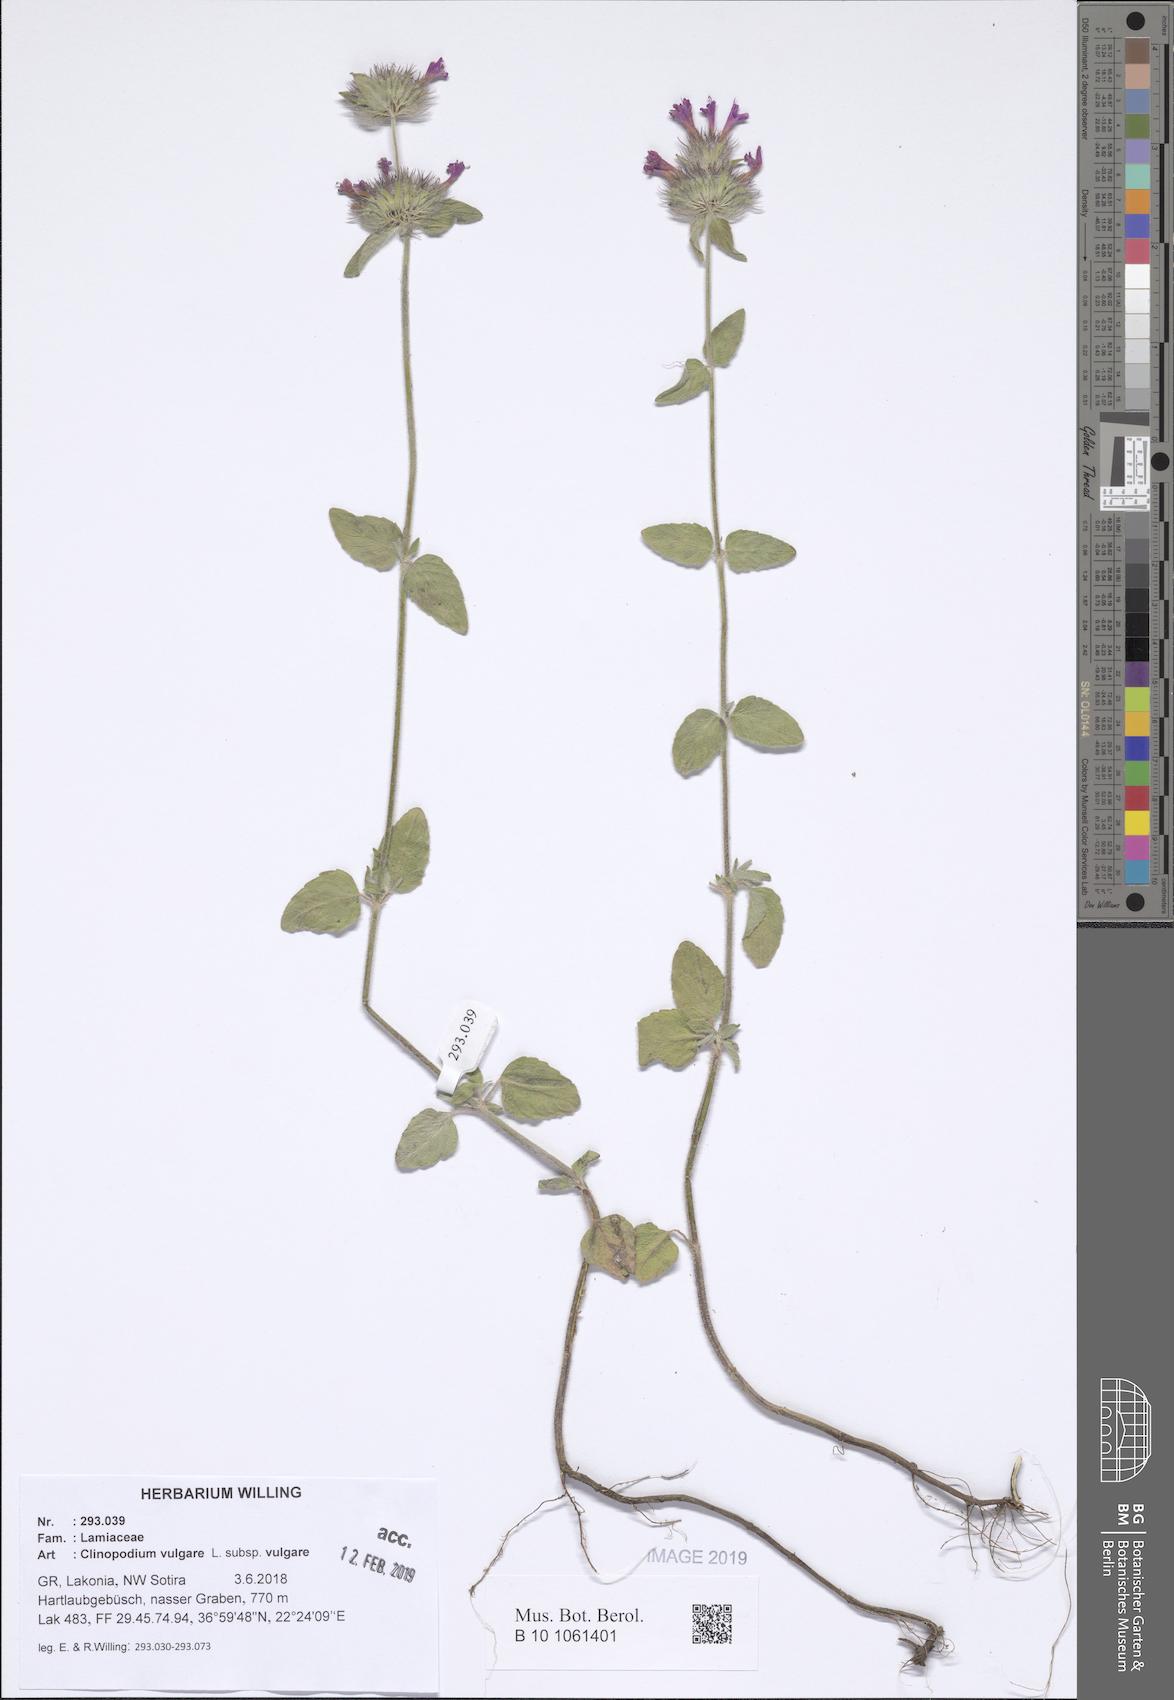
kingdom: Plantae
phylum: Tracheophyta
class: Magnoliopsida
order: Lamiales
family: Lamiaceae
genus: Clinopodium
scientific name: Clinopodium vulgare
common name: Wild basil
